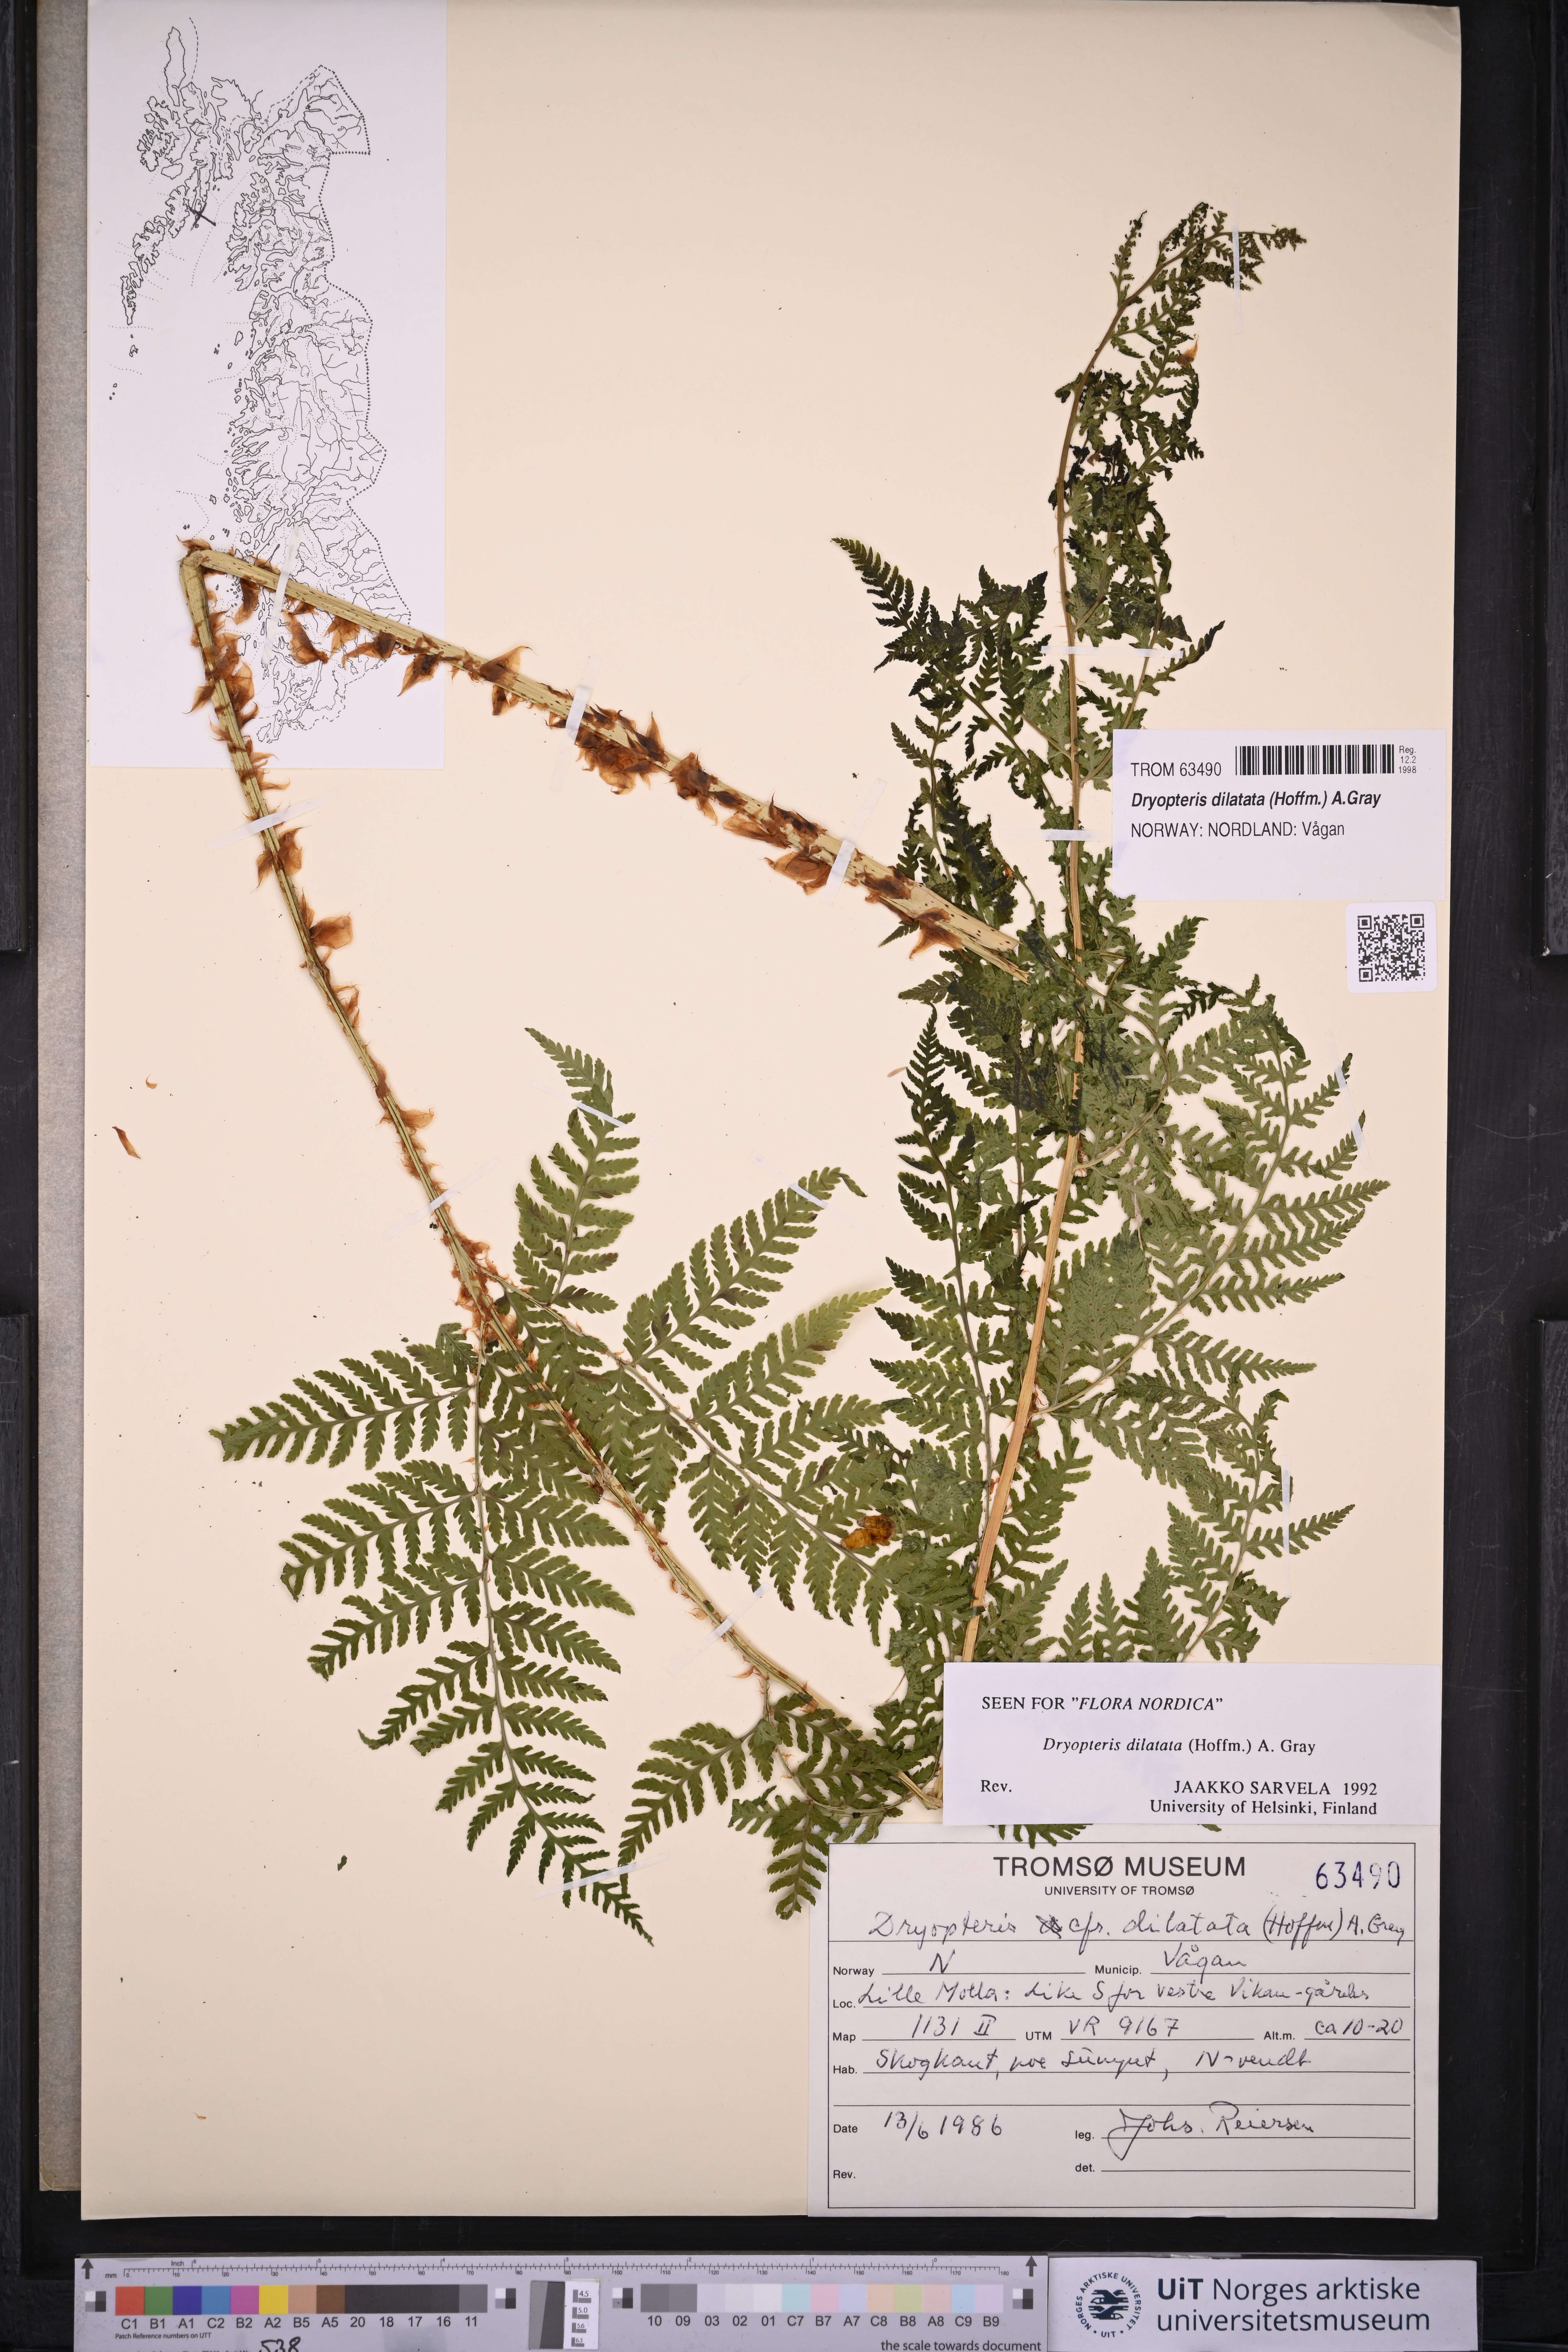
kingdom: Plantae
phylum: Tracheophyta
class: Polypodiopsida
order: Polypodiales
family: Dryopteridaceae
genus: Dryopteris
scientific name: Dryopteris dilatata
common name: Broad buckler-fern
